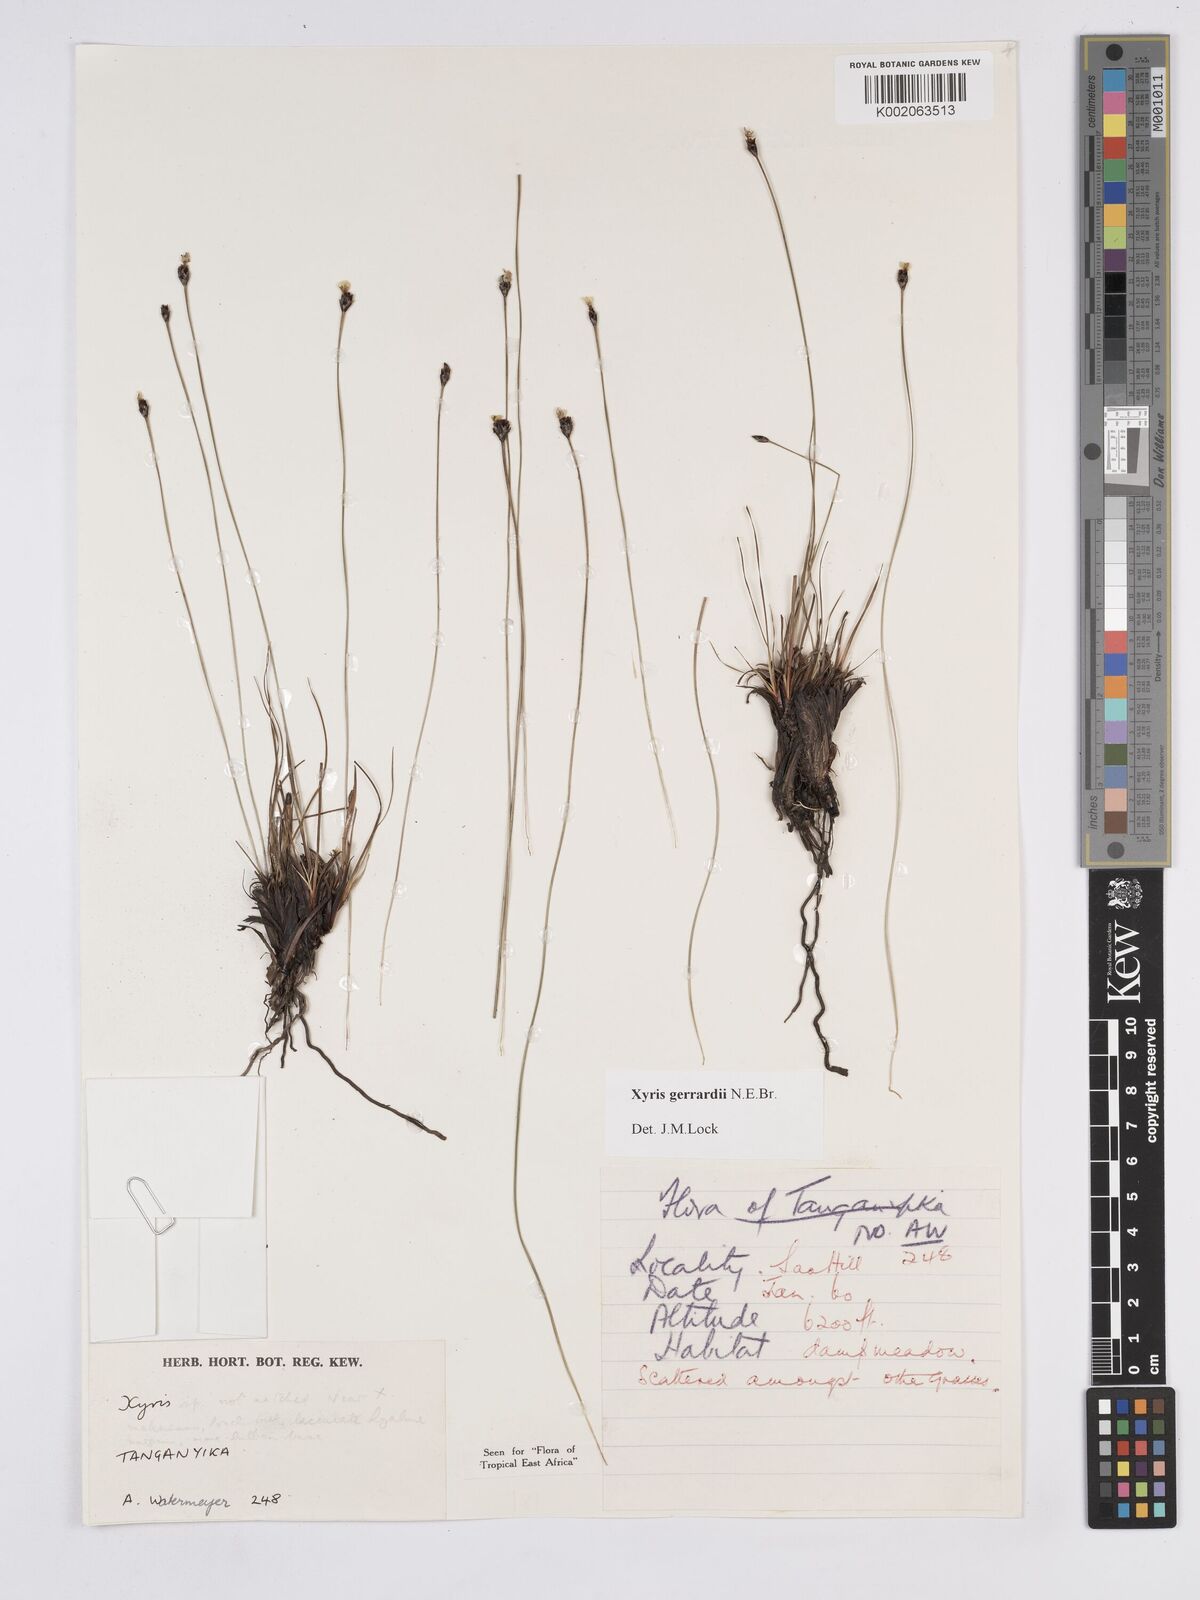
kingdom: Plantae
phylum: Tracheophyta
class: Liliopsida
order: Poales
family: Xyridaceae
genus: Xyris
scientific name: Xyris gerrardii
